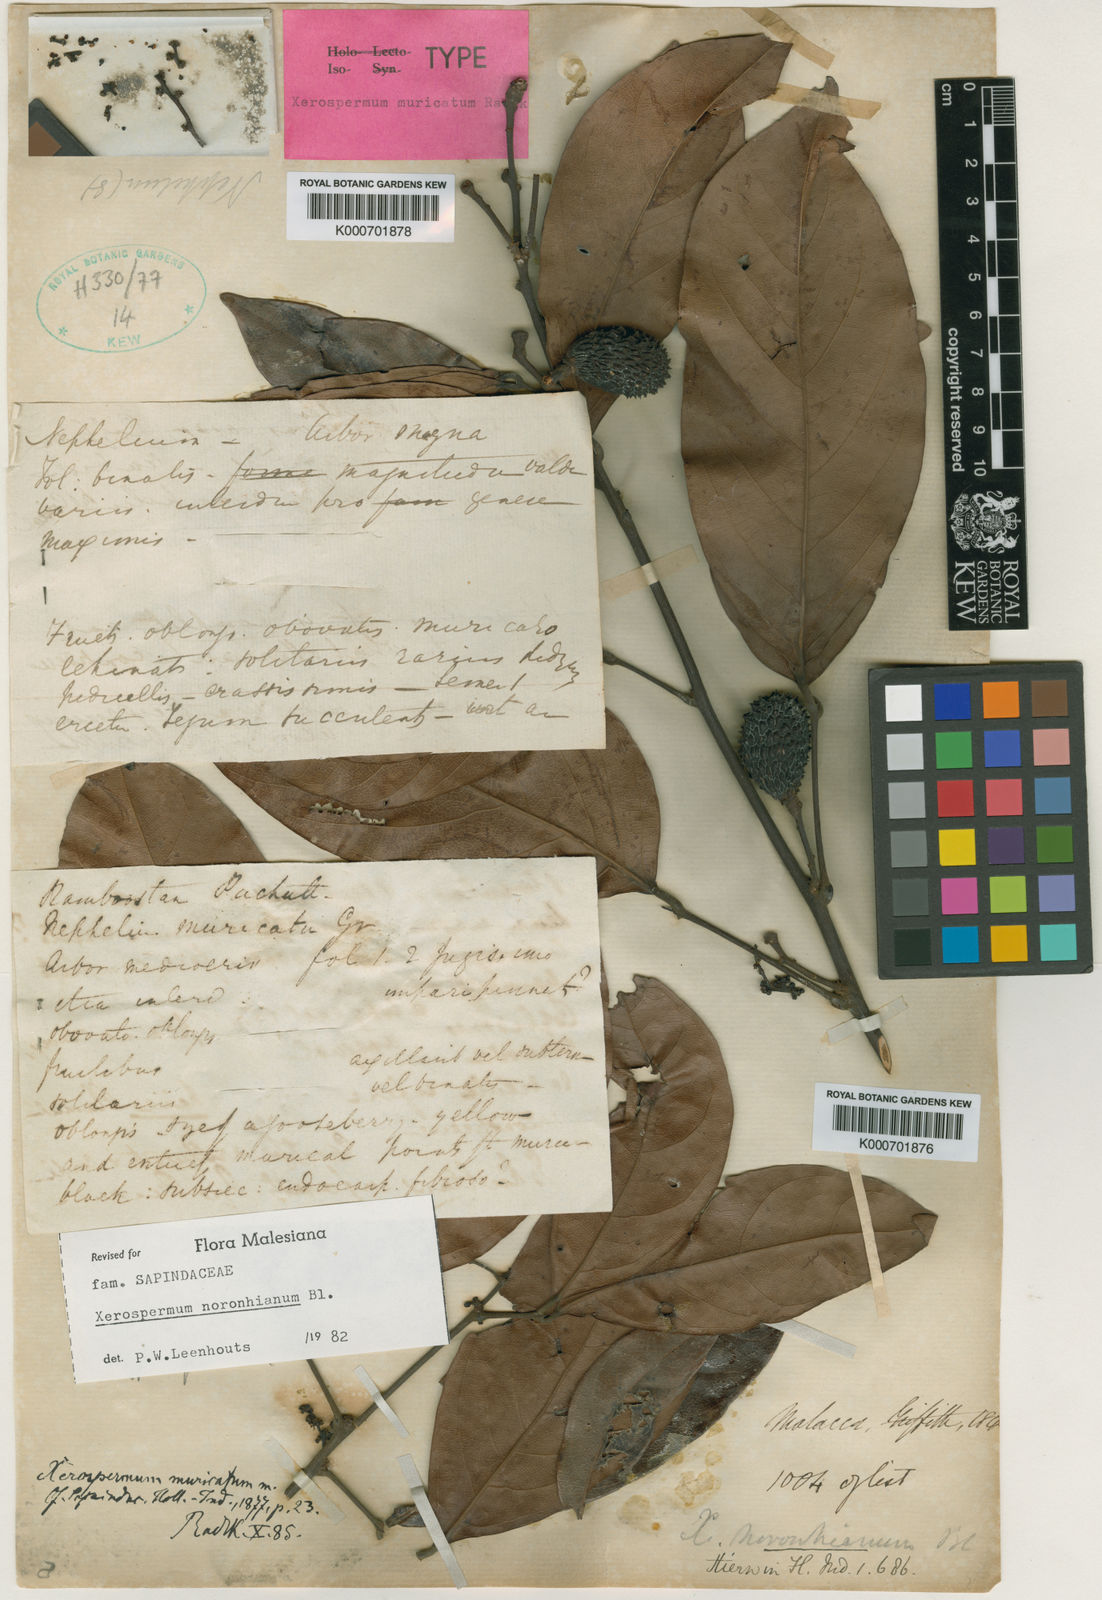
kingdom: Plantae
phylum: Tracheophyta
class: Magnoliopsida
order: Sapindales
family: Sapindaceae
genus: Xerospermum
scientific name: Xerospermum noronhianum
